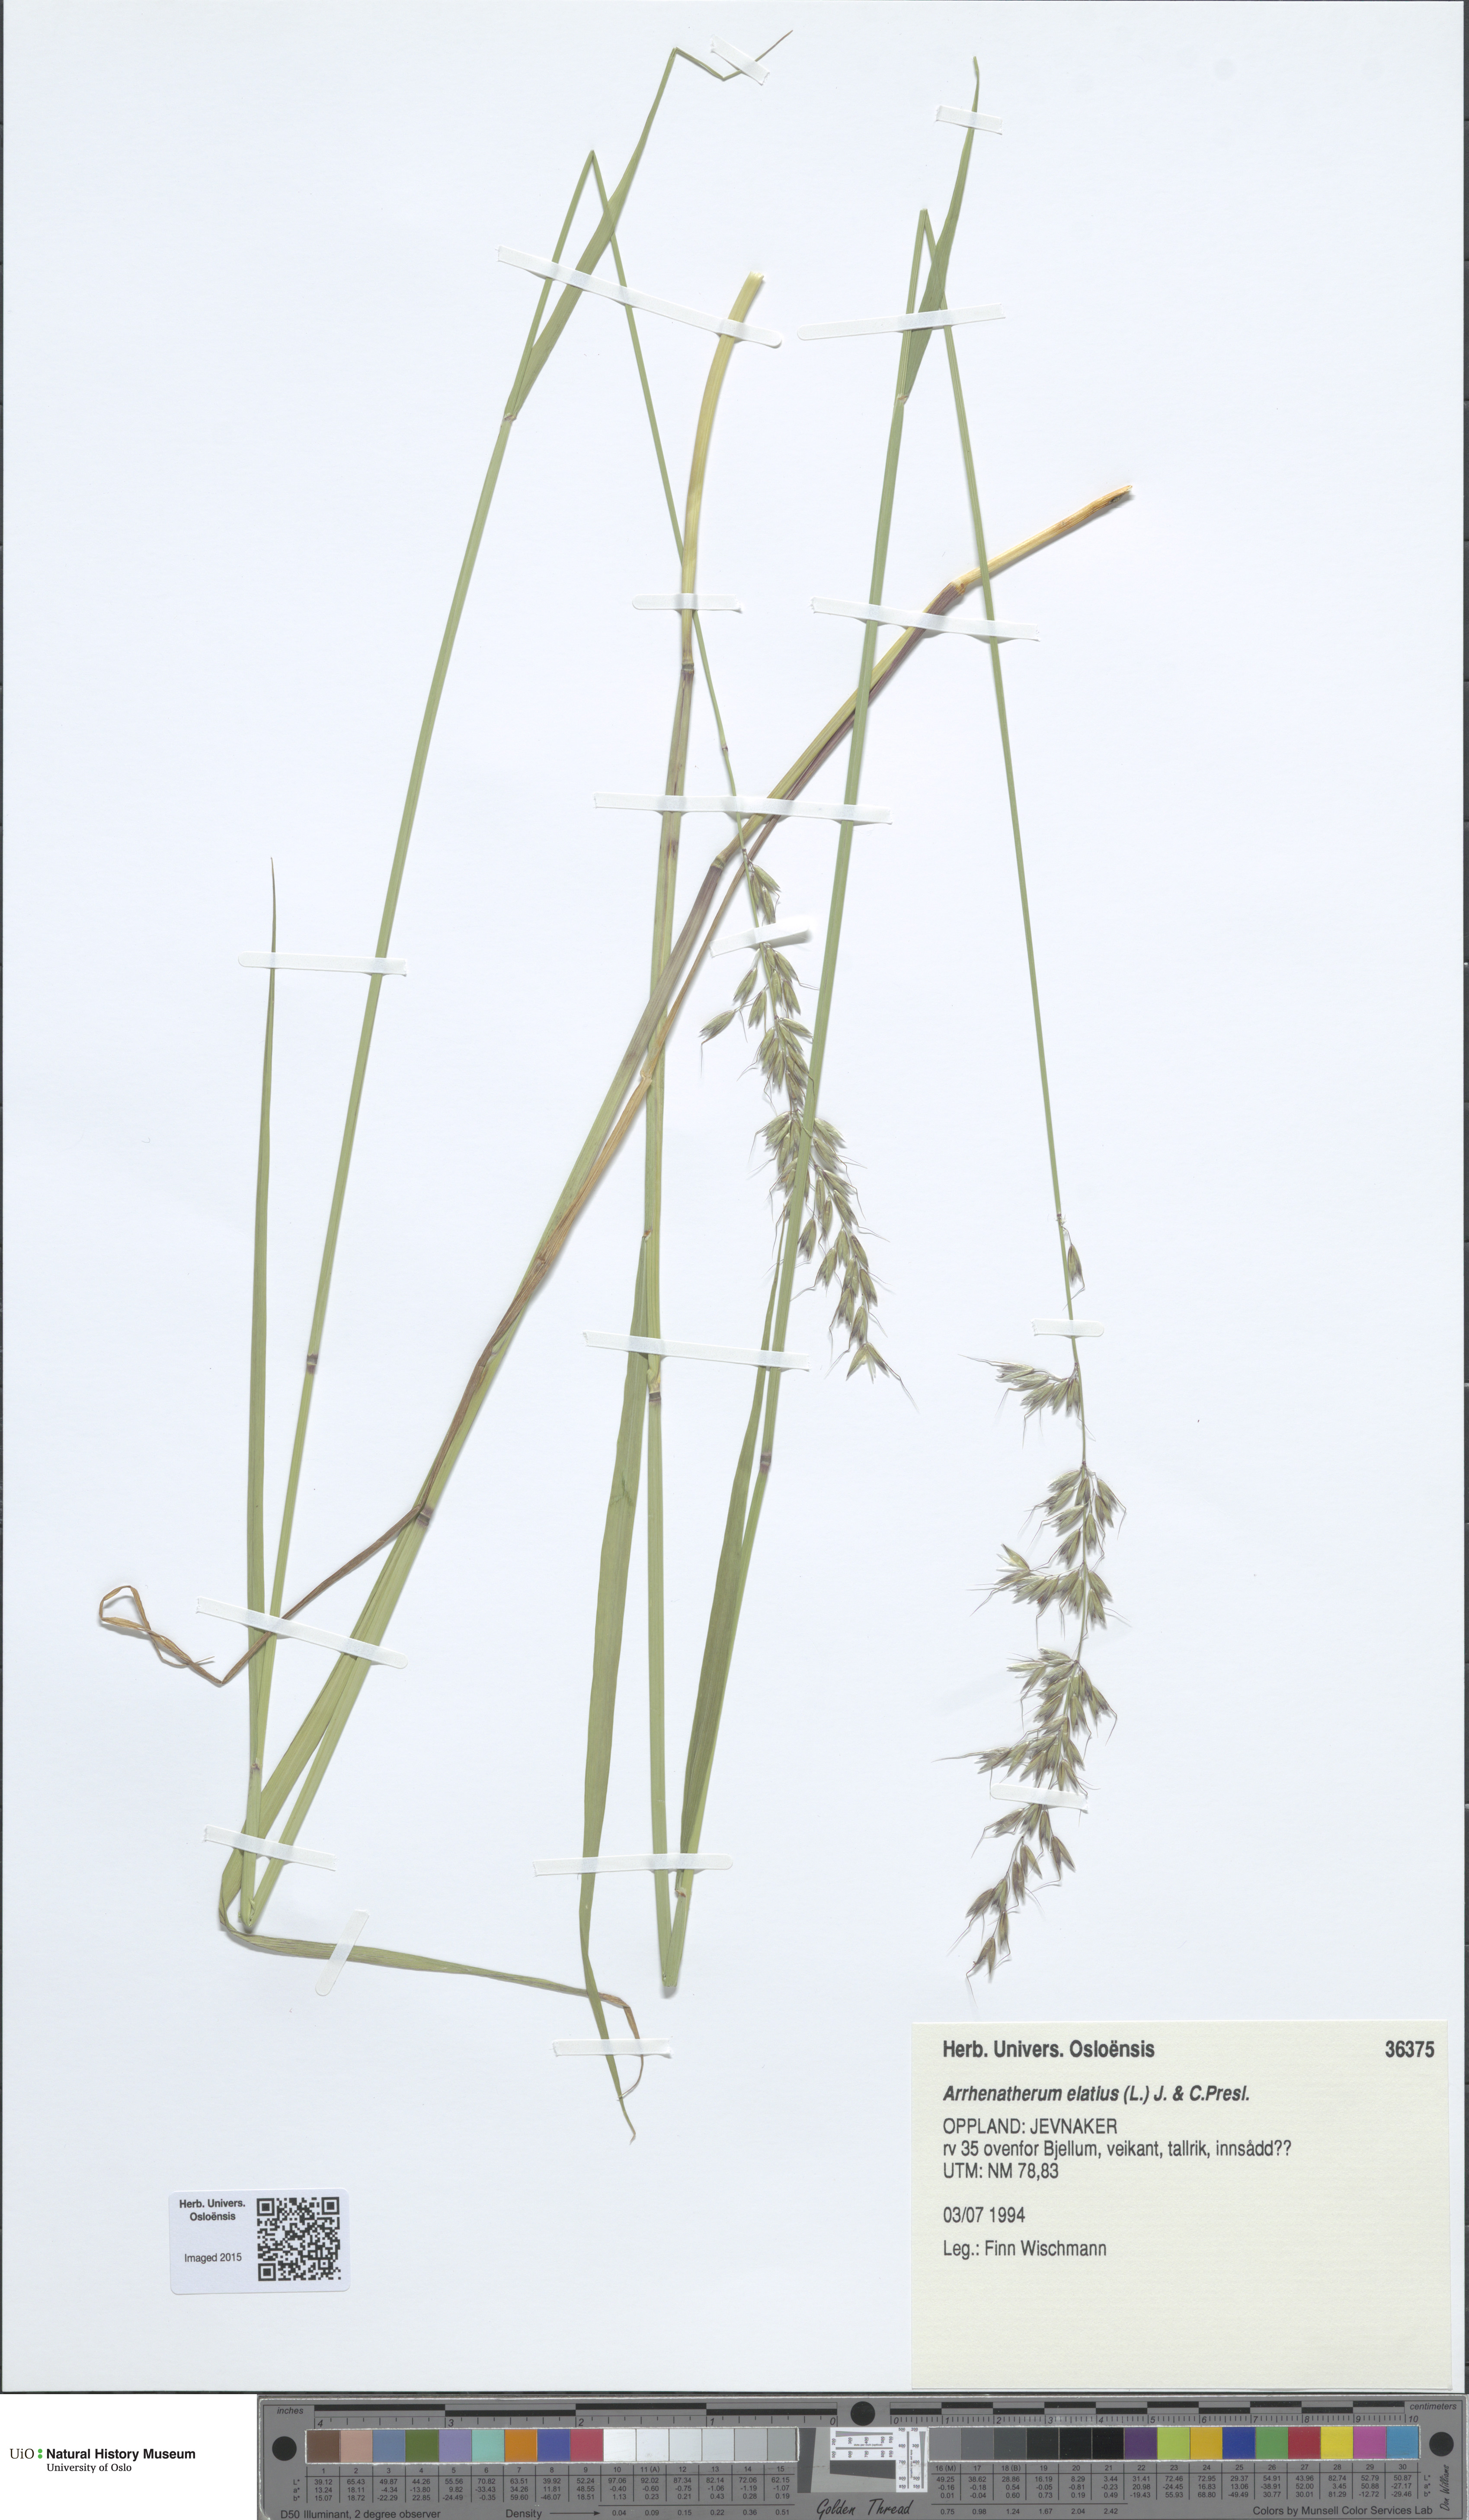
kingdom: Plantae
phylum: Tracheophyta
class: Liliopsida
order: Poales
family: Poaceae
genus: Arrhenatherum
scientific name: Arrhenatherum elatius
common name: Tall oatgrass
